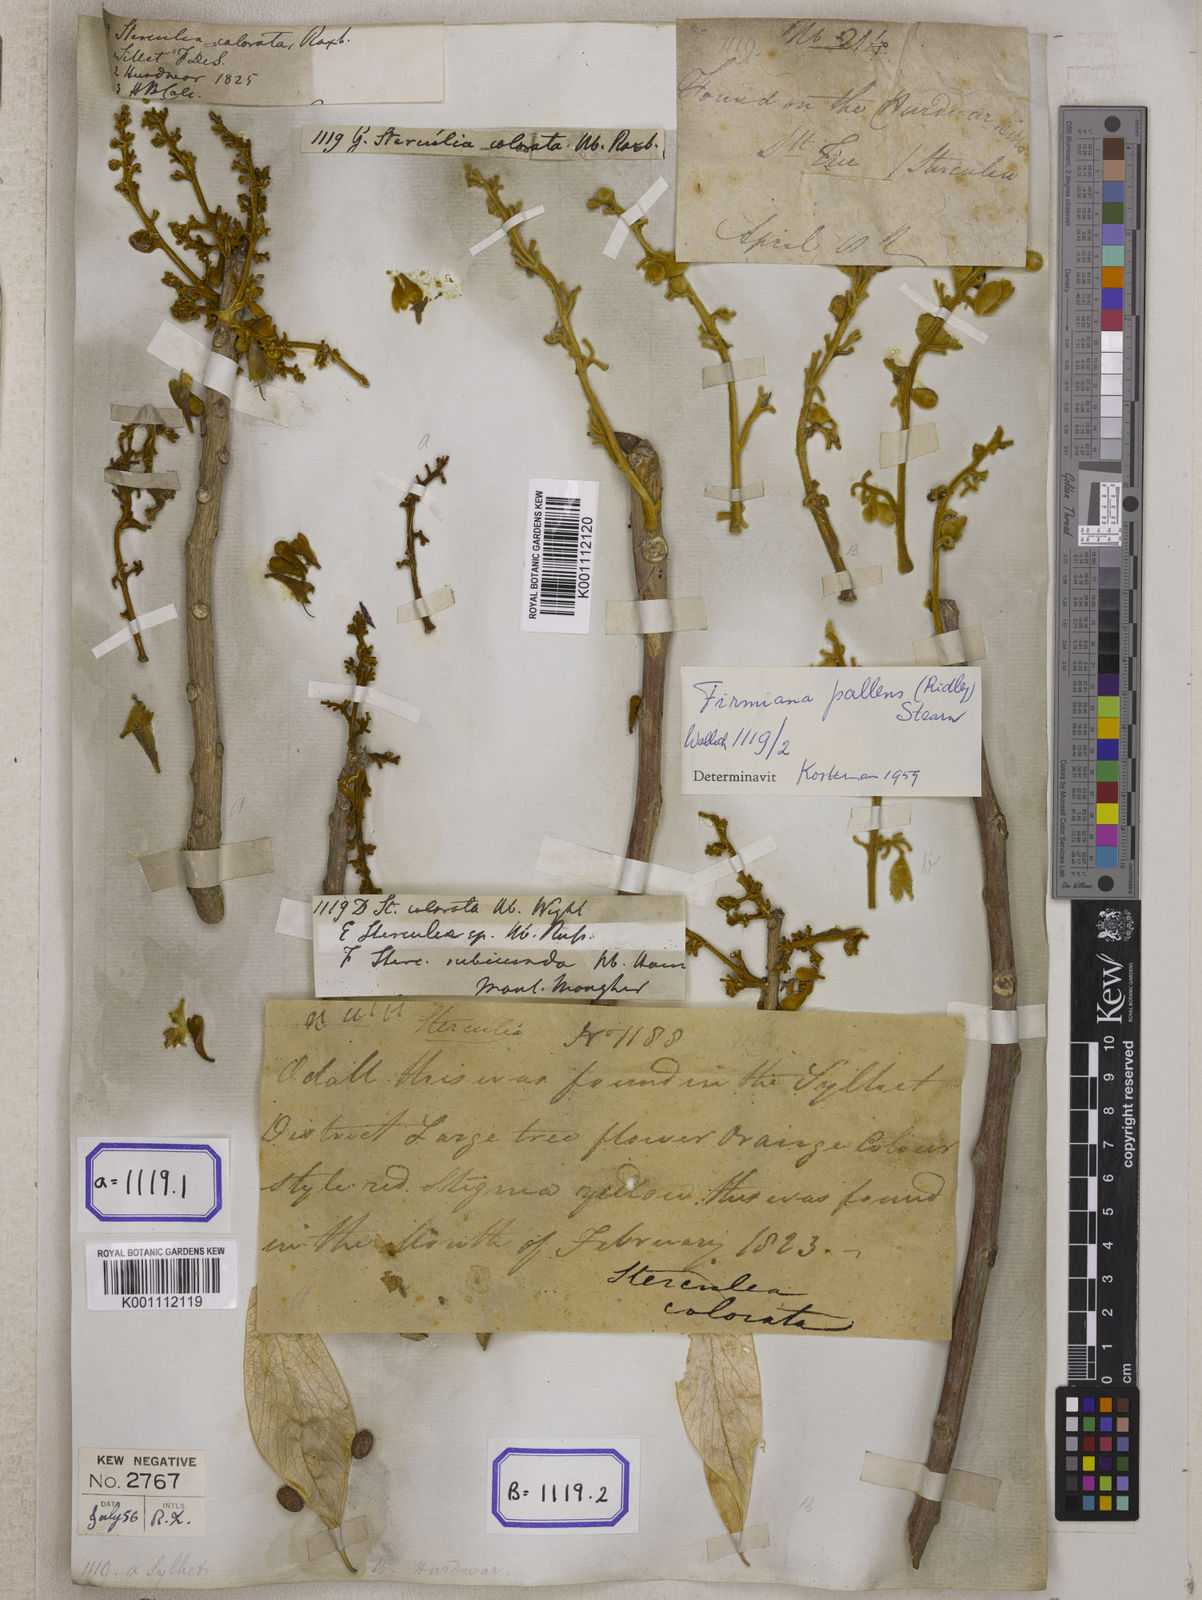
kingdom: Plantae
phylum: Tracheophyta
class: Magnoliopsida
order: Malvales
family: Malvaceae
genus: Firmiana
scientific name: Firmiana colorata
